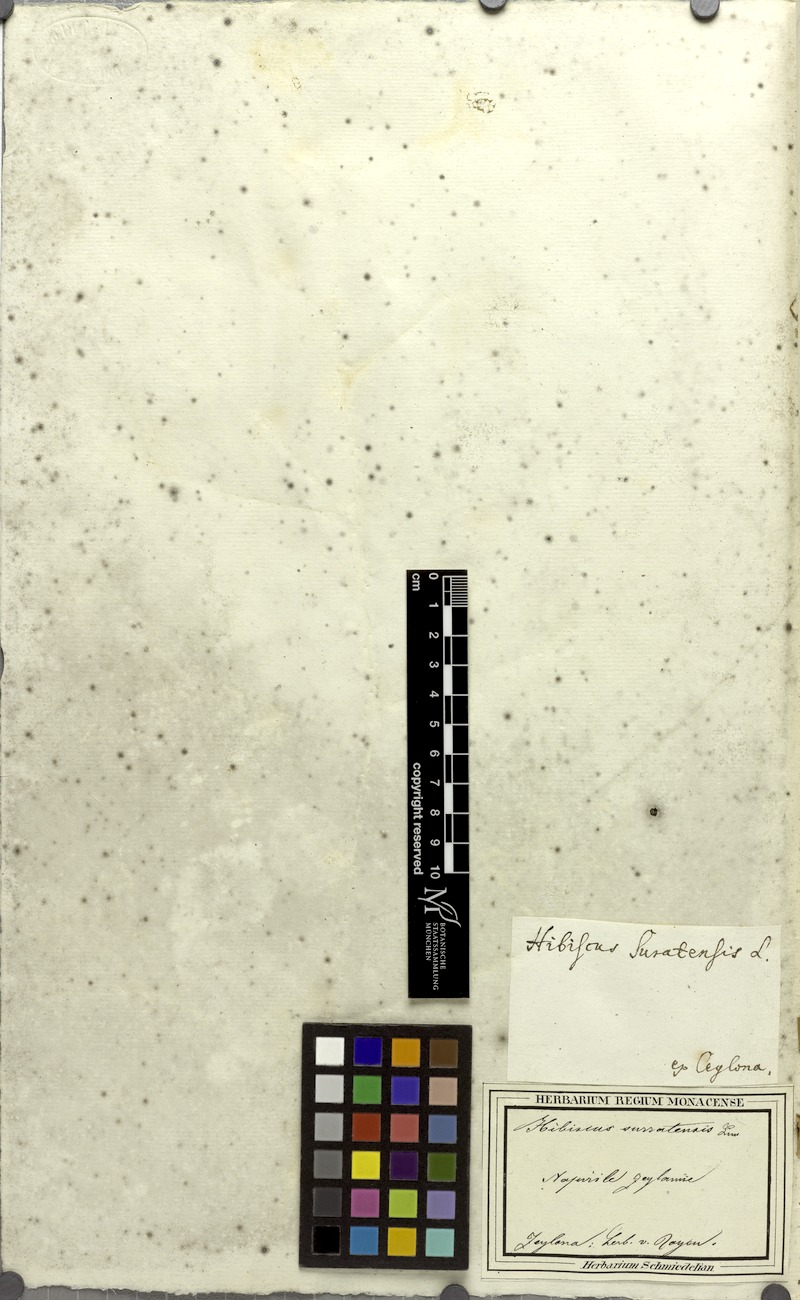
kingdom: Plantae
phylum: Tracheophyta
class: Magnoliopsida
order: Malvales
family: Malvaceae
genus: Hibiscus
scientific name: Hibiscus surattensis
